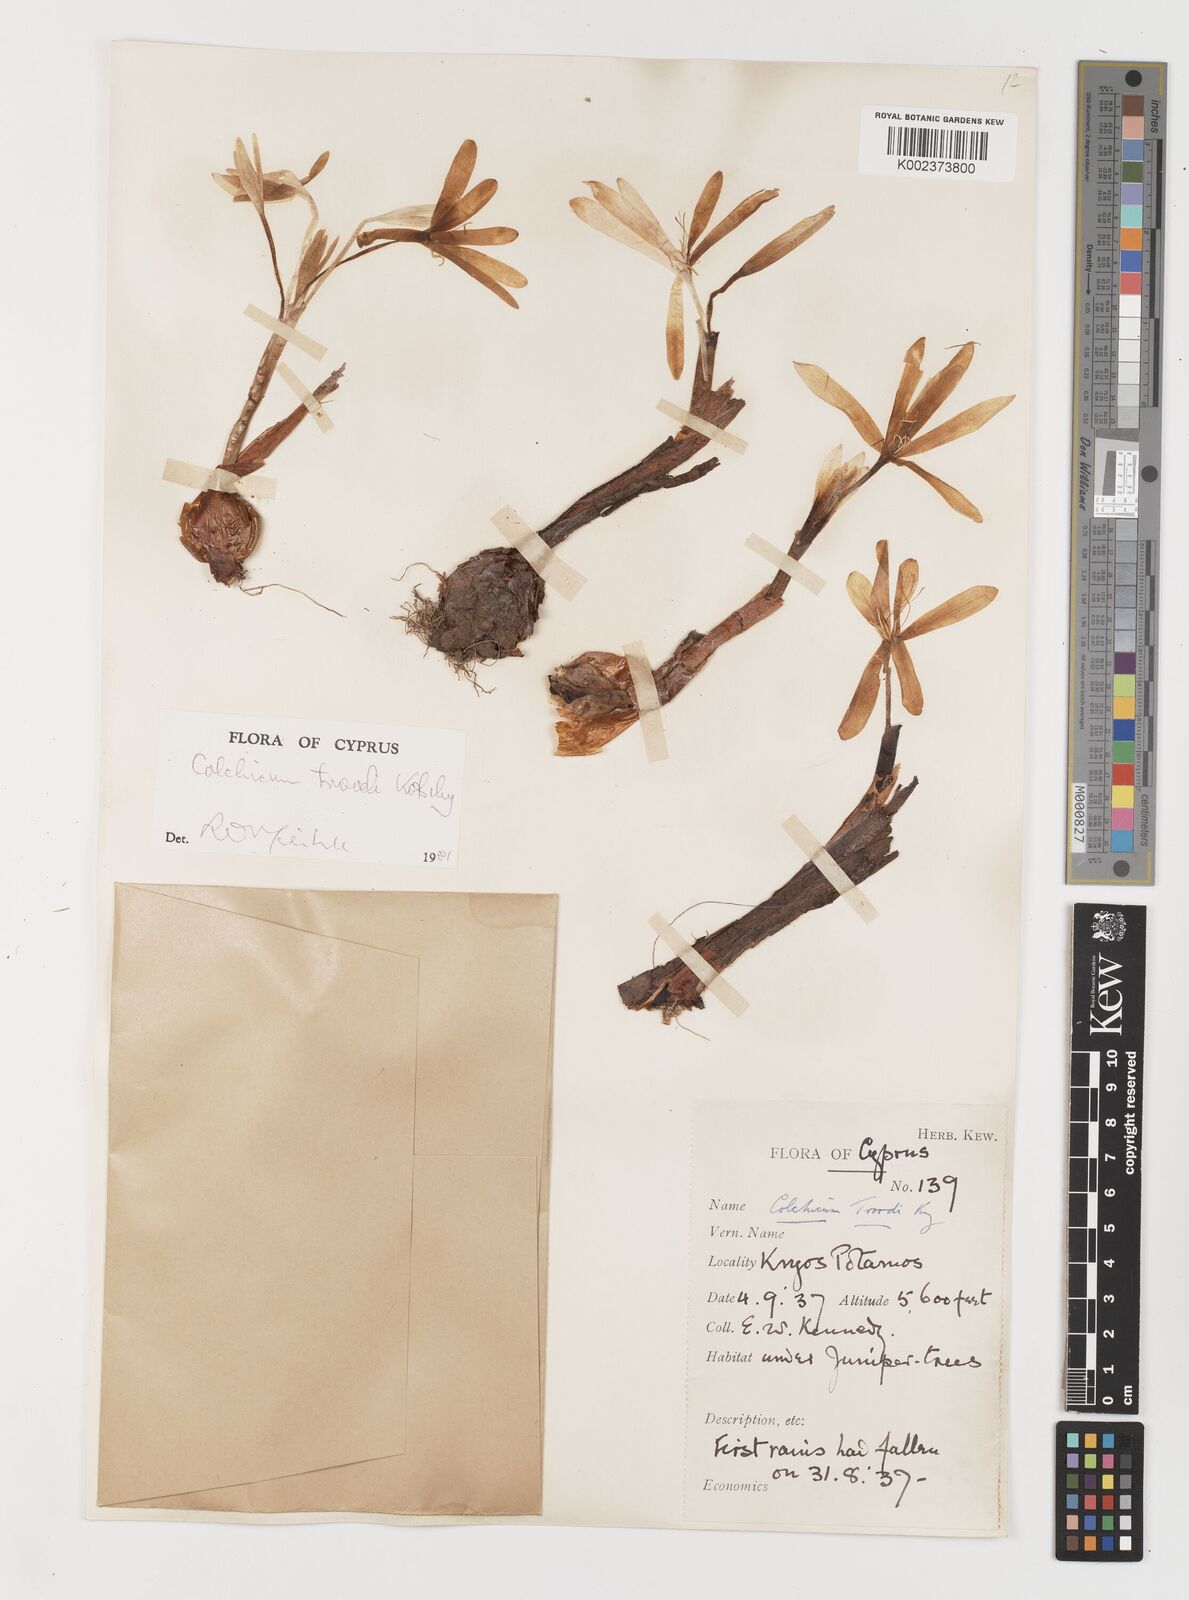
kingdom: Plantae
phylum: Tracheophyta
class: Liliopsida
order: Liliales
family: Colchicaceae
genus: Colchicum
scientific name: Colchicum troodi
